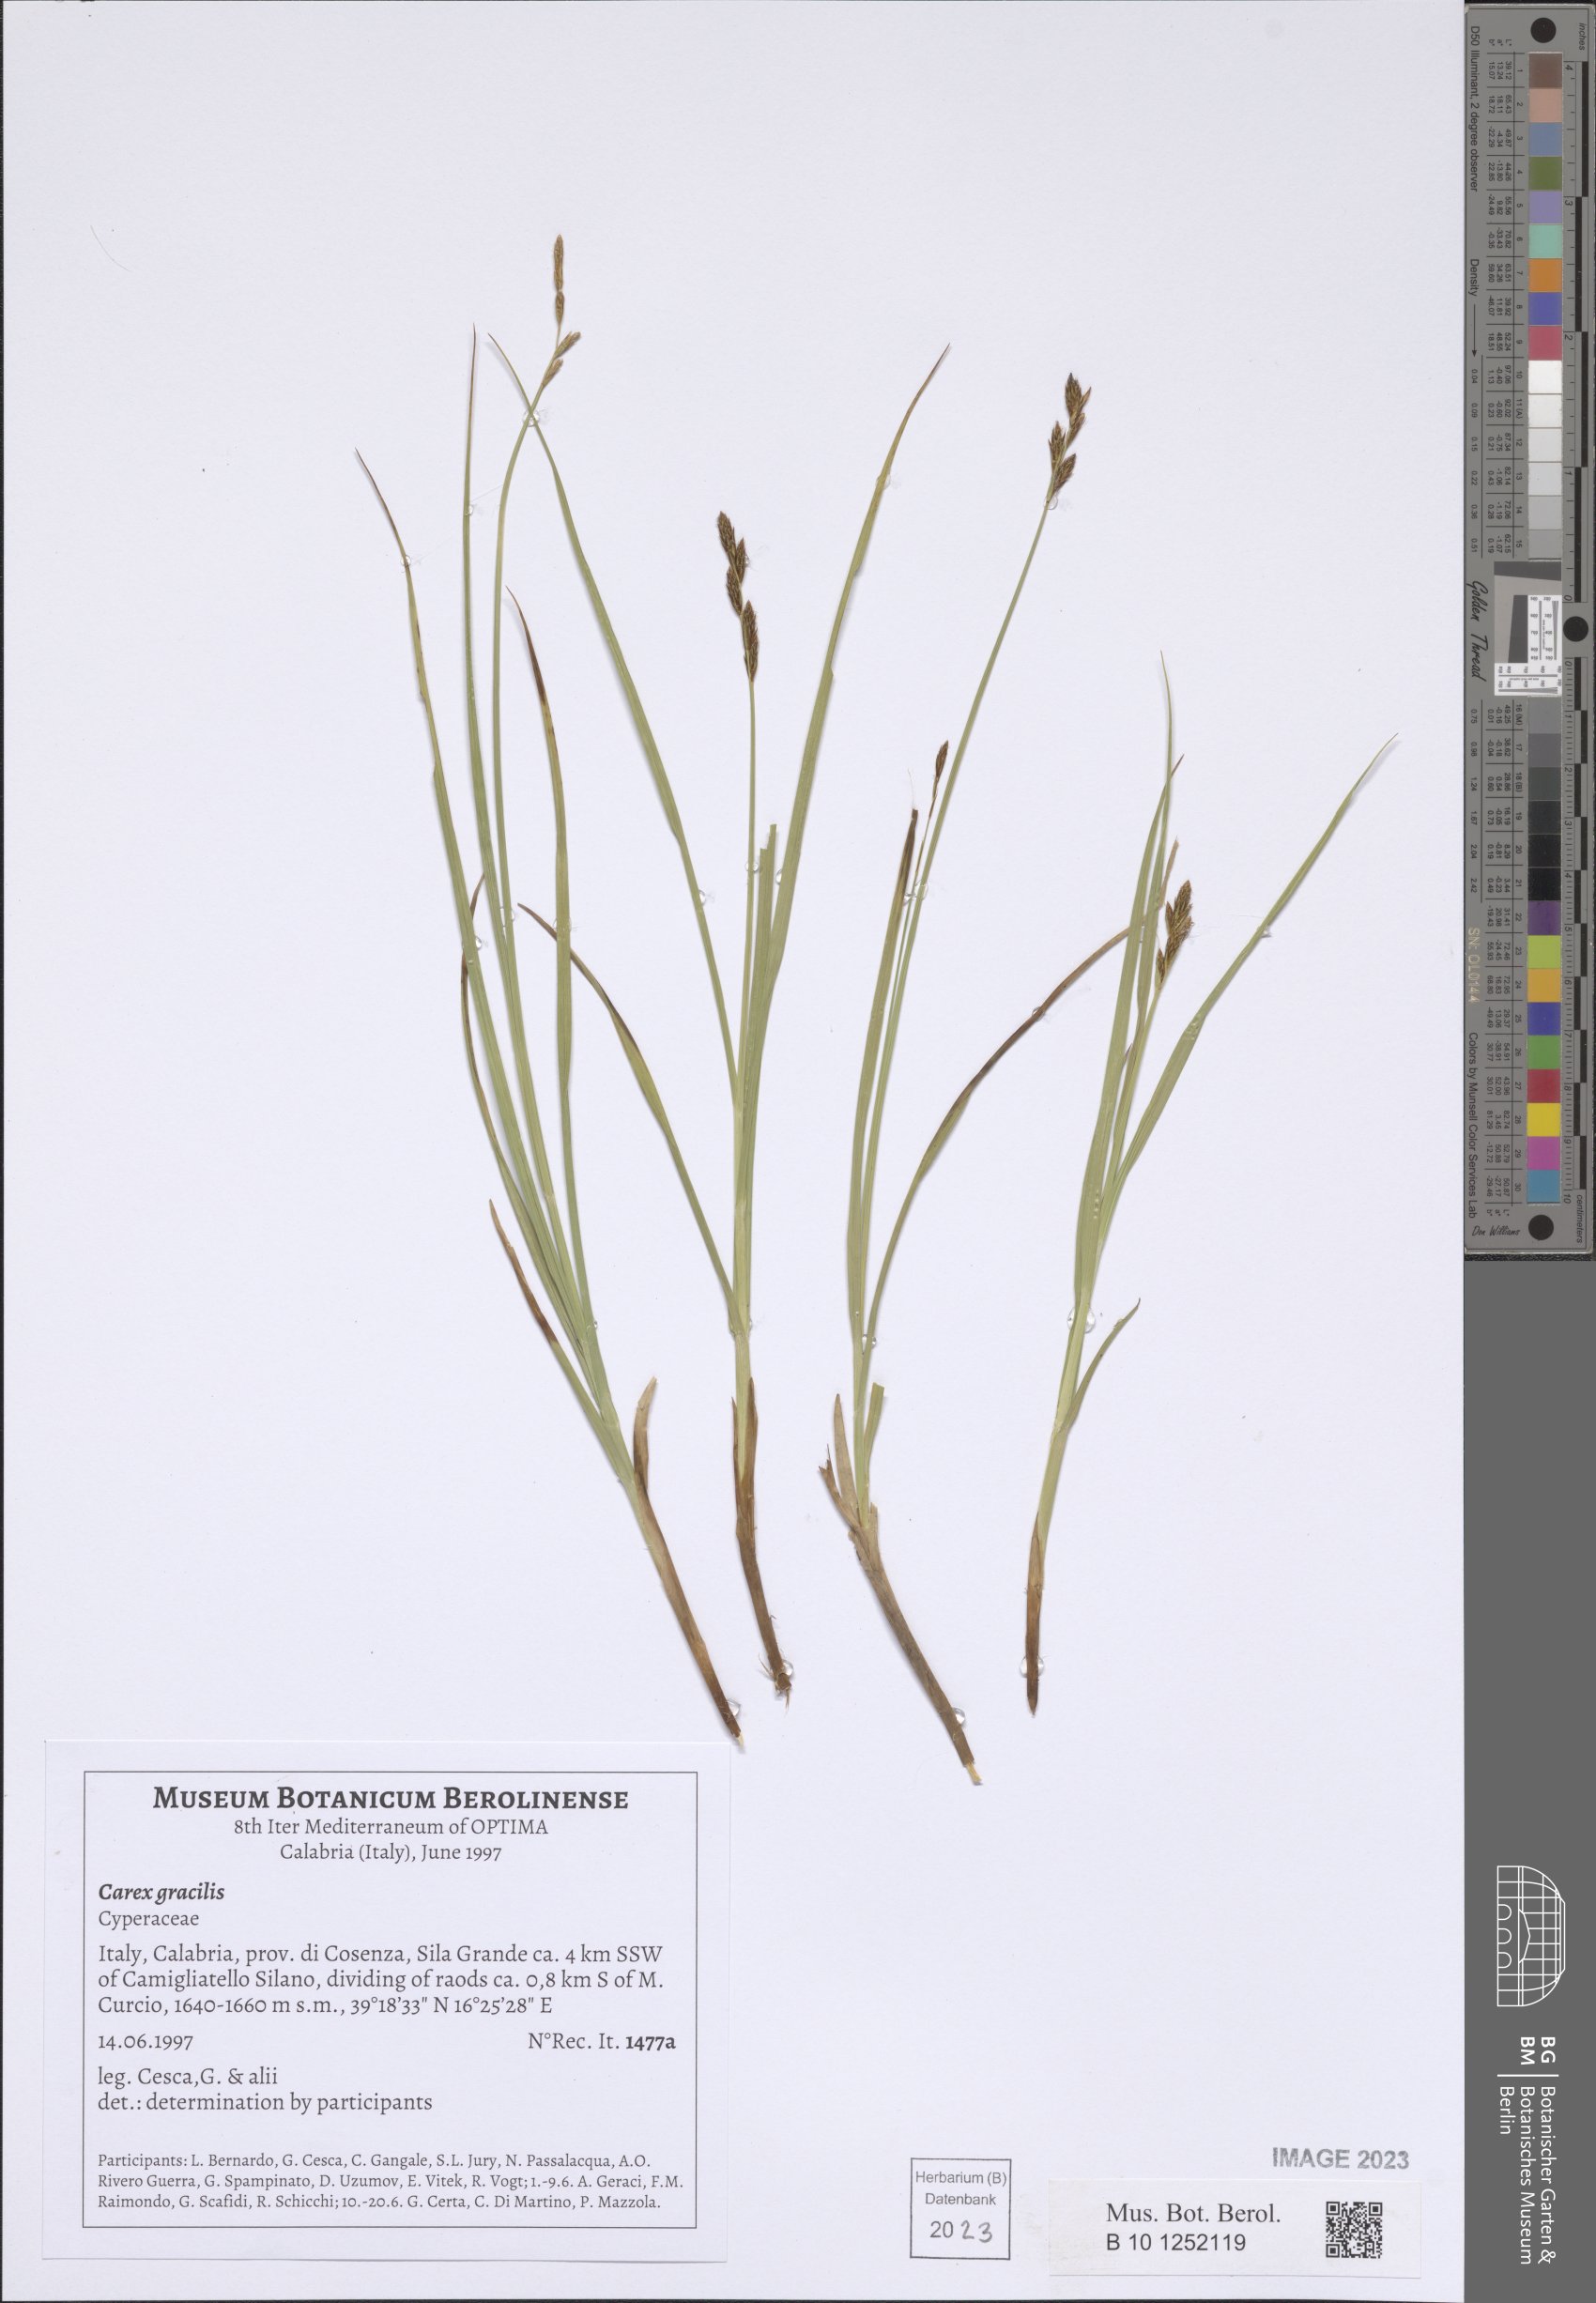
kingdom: Plantae
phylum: Tracheophyta
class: Liliopsida
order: Poales
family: Cyperaceae
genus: Carex
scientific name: Carex acuta
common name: Slender tufted-sedge
